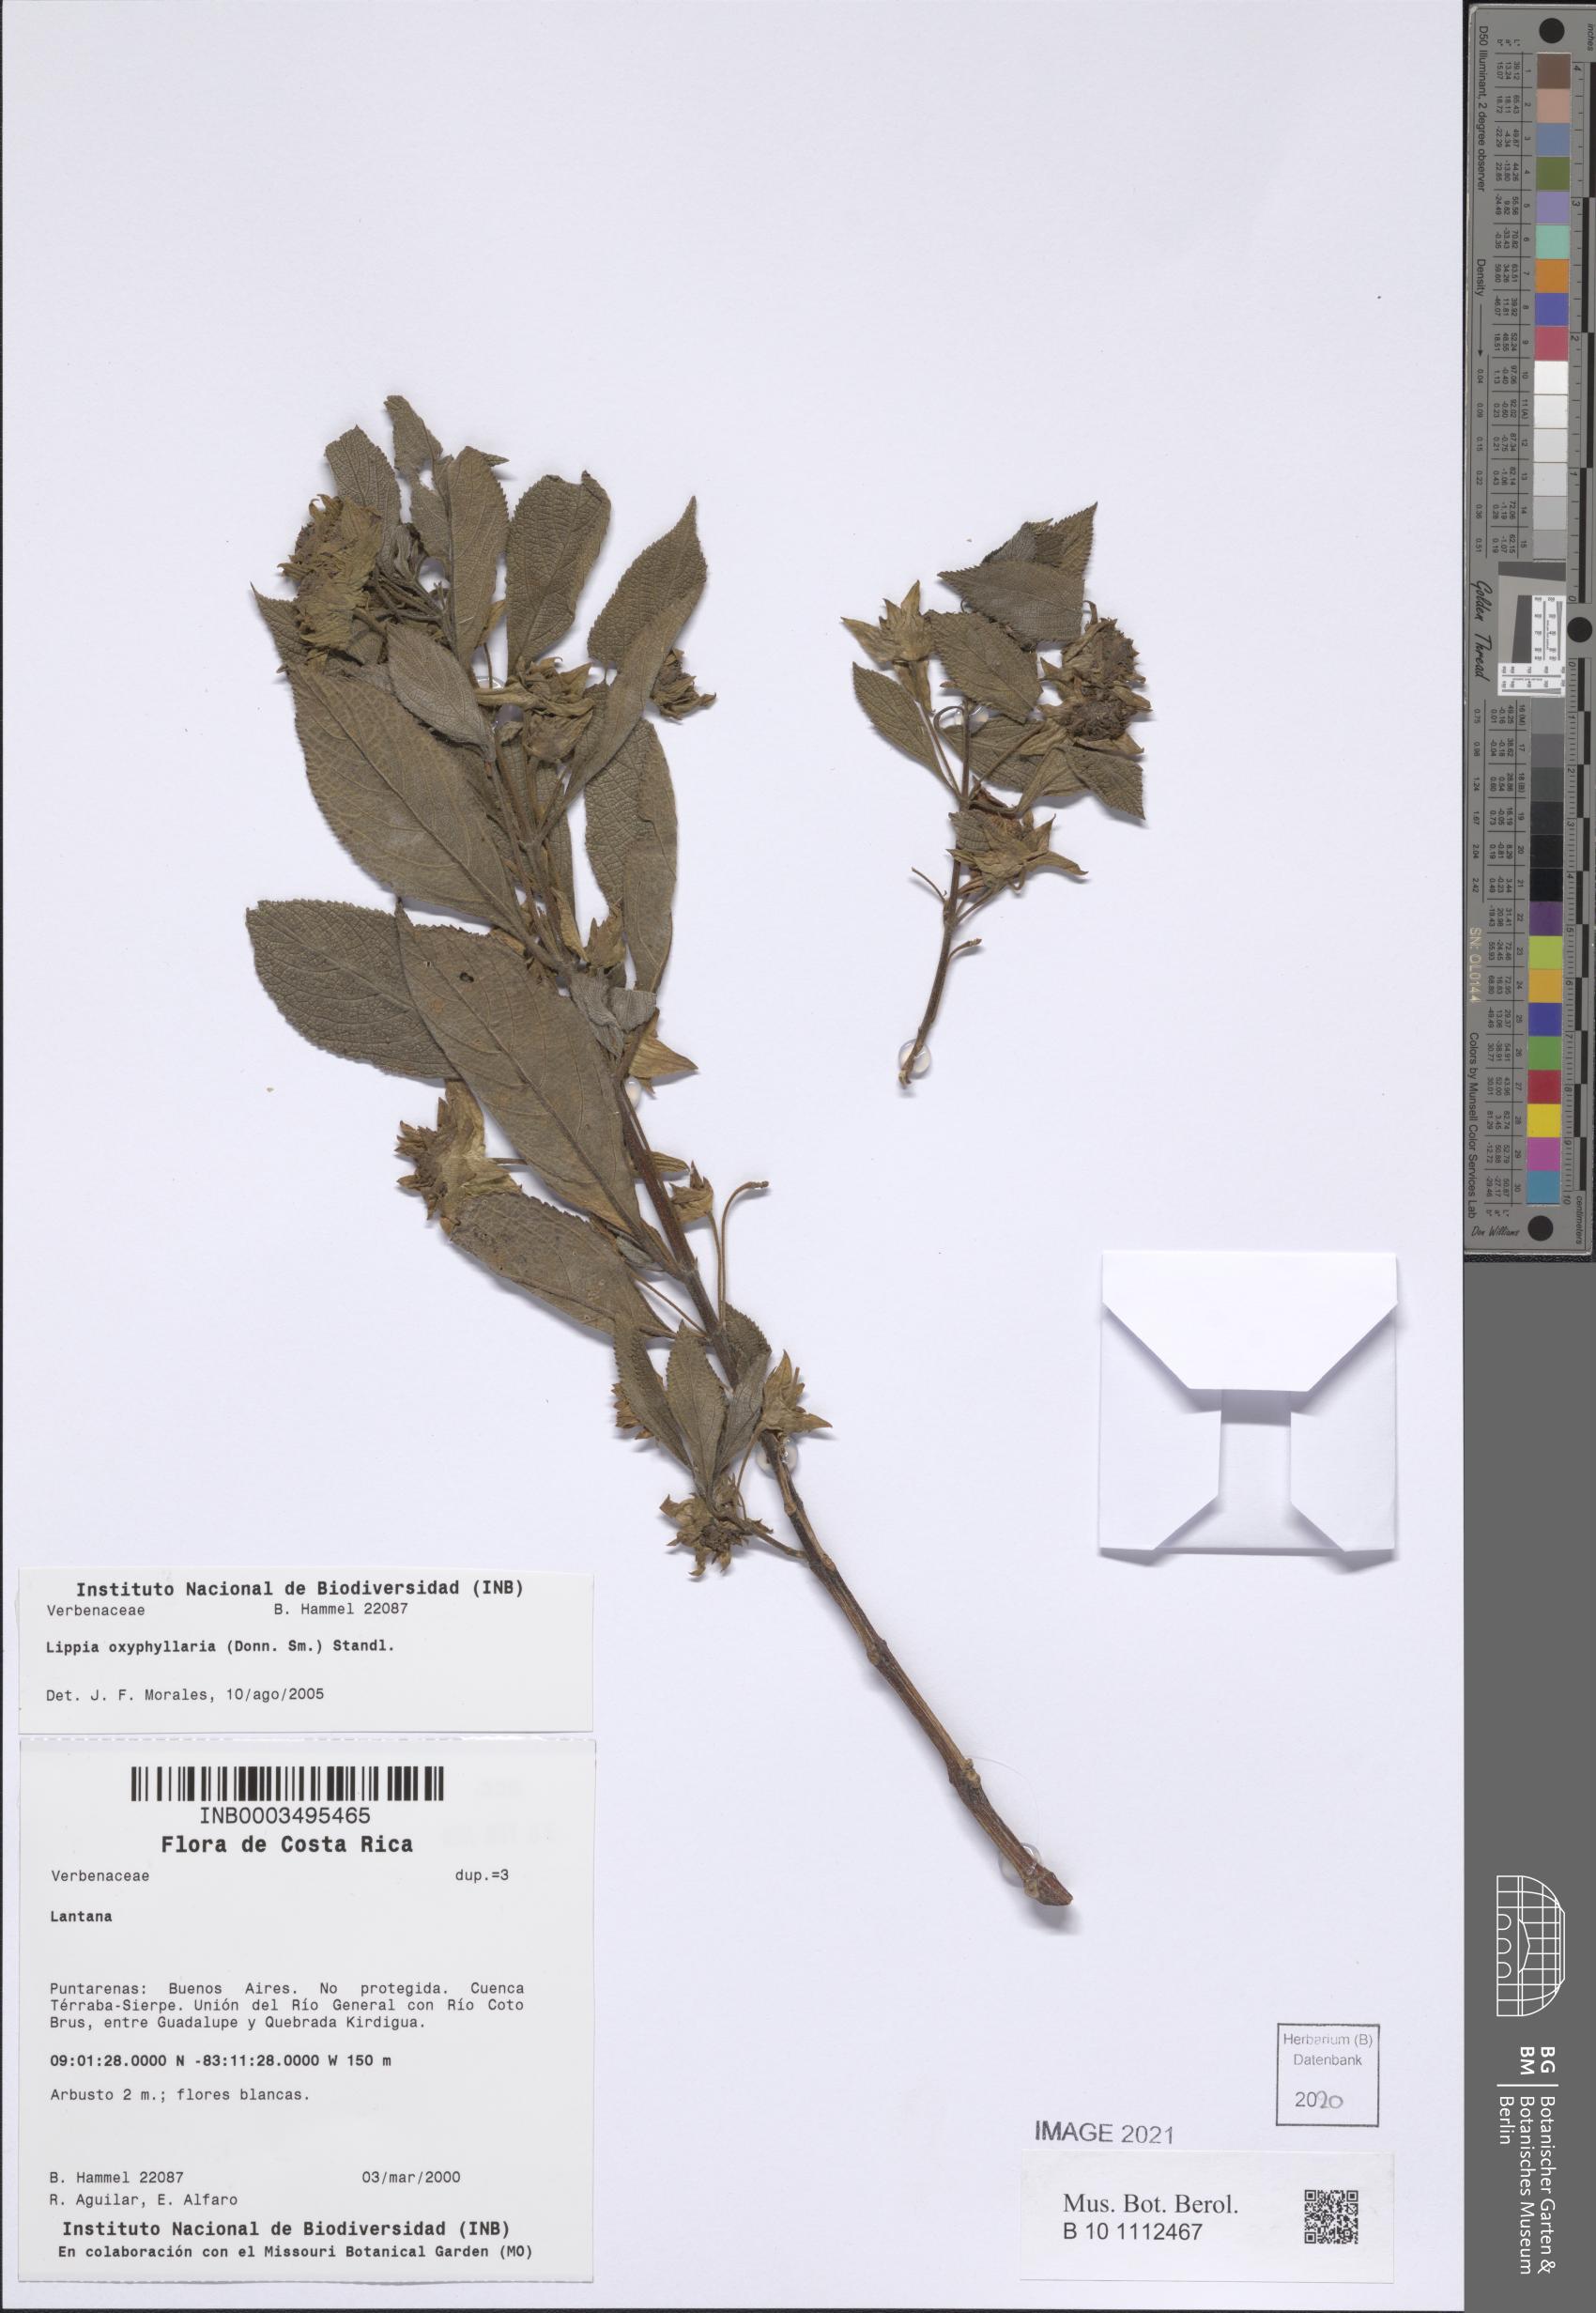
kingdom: Plantae
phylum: Tracheophyta
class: Magnoliopsida
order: Lamiales
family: Verbenaceae
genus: Lippia
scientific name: Lippia oxyphyllaria
